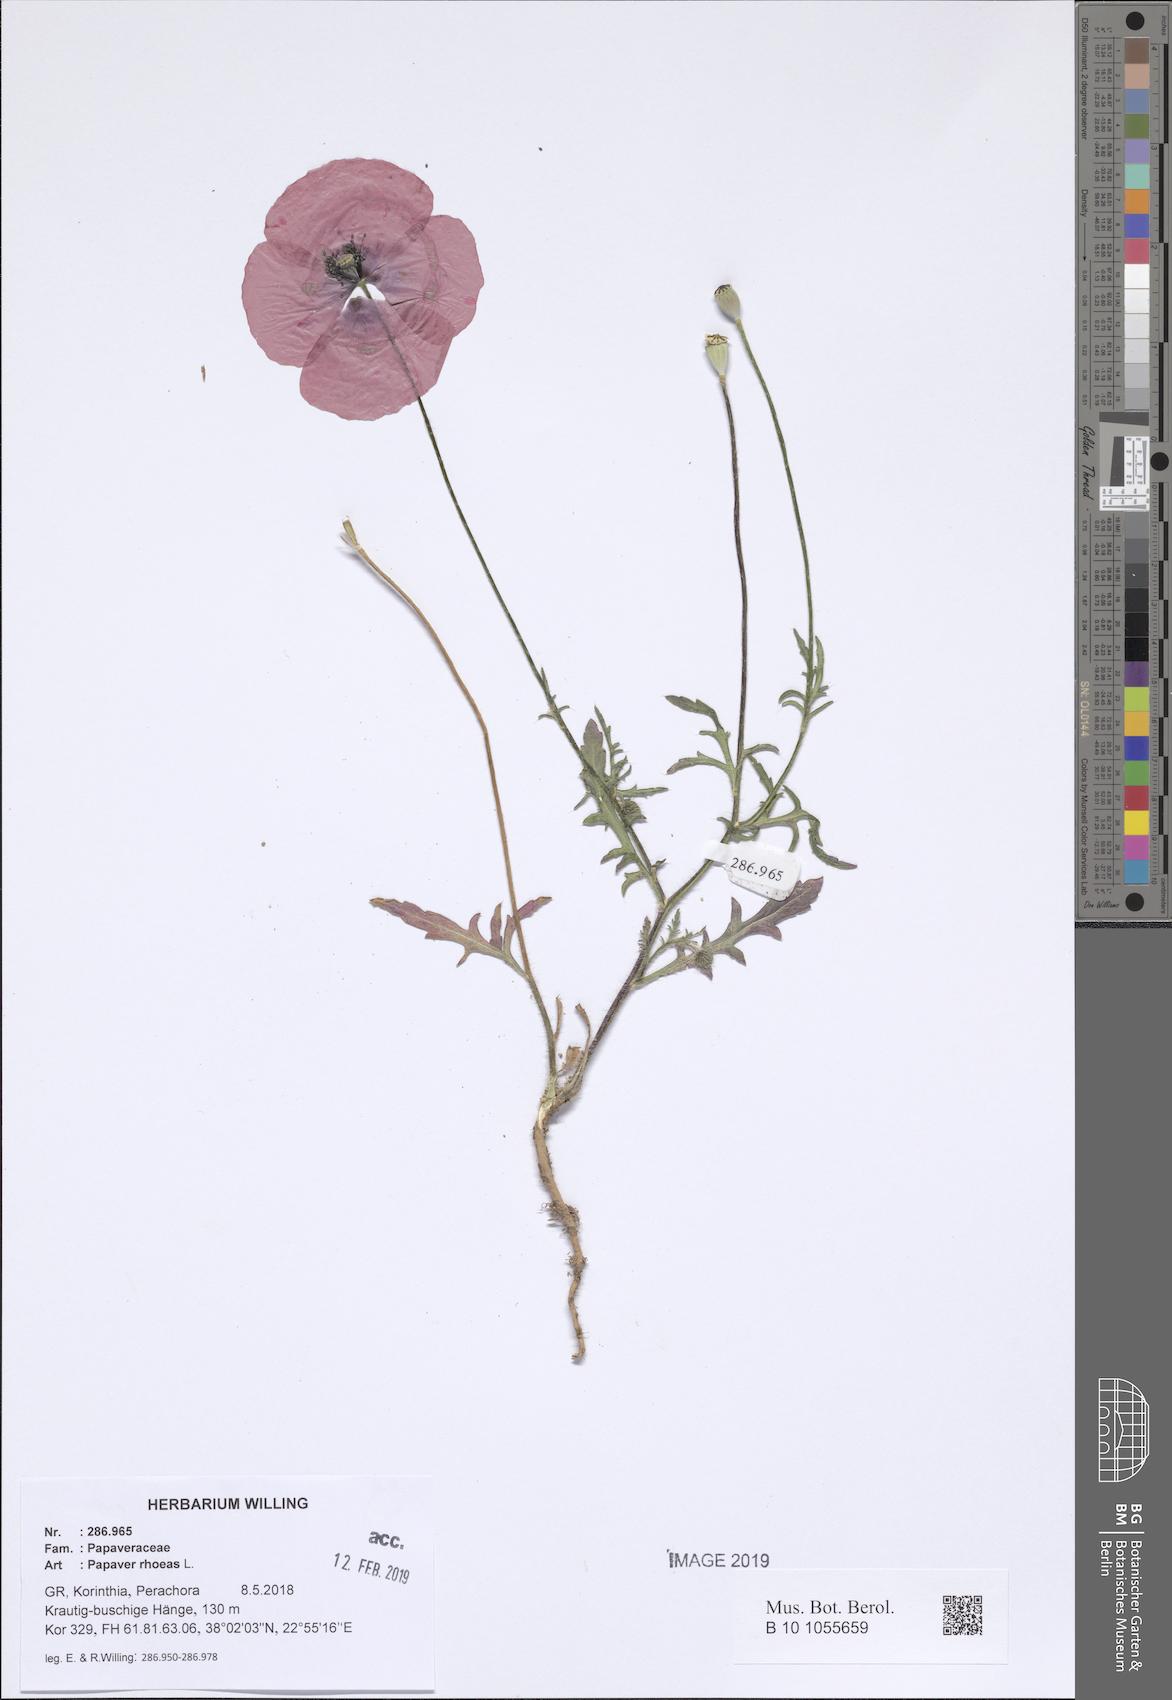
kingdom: Plantae
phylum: Tracheophyta
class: Magnoliopsida
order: Ranunculales
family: Papaveraceae
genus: Papaver
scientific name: Papaver rhoeas
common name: Corn poppy
